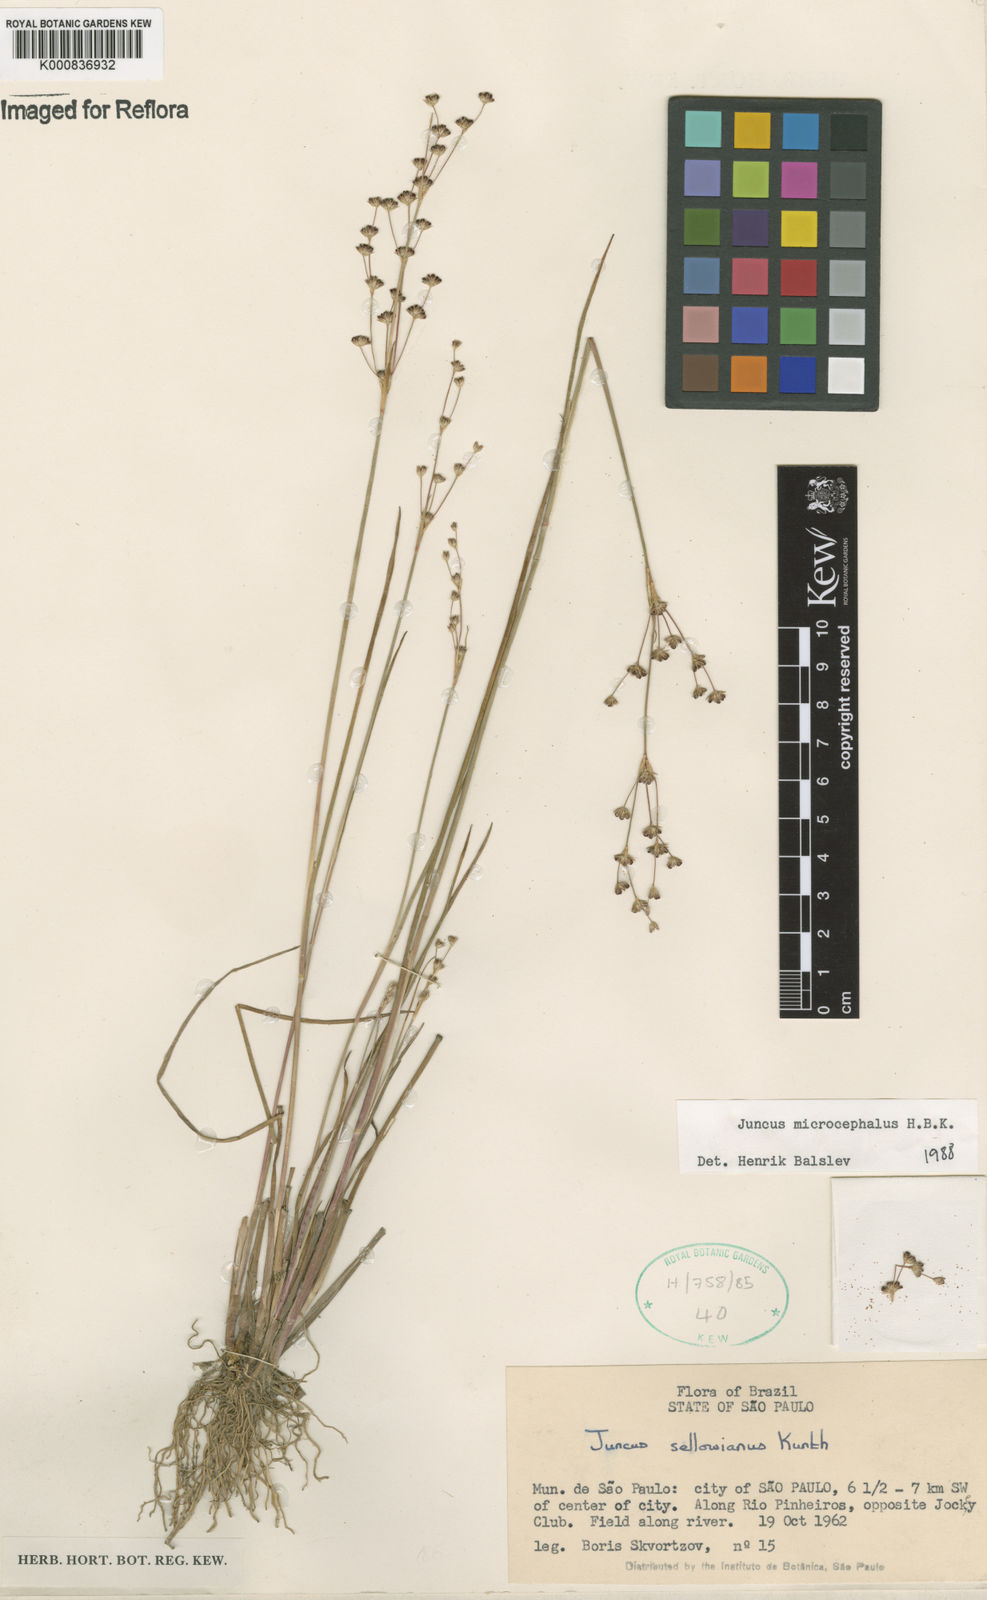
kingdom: Plantae
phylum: Tracheophyta
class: Liliopsida
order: Poales
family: Juncaceae
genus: Juncus
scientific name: Juncus microcephalus
